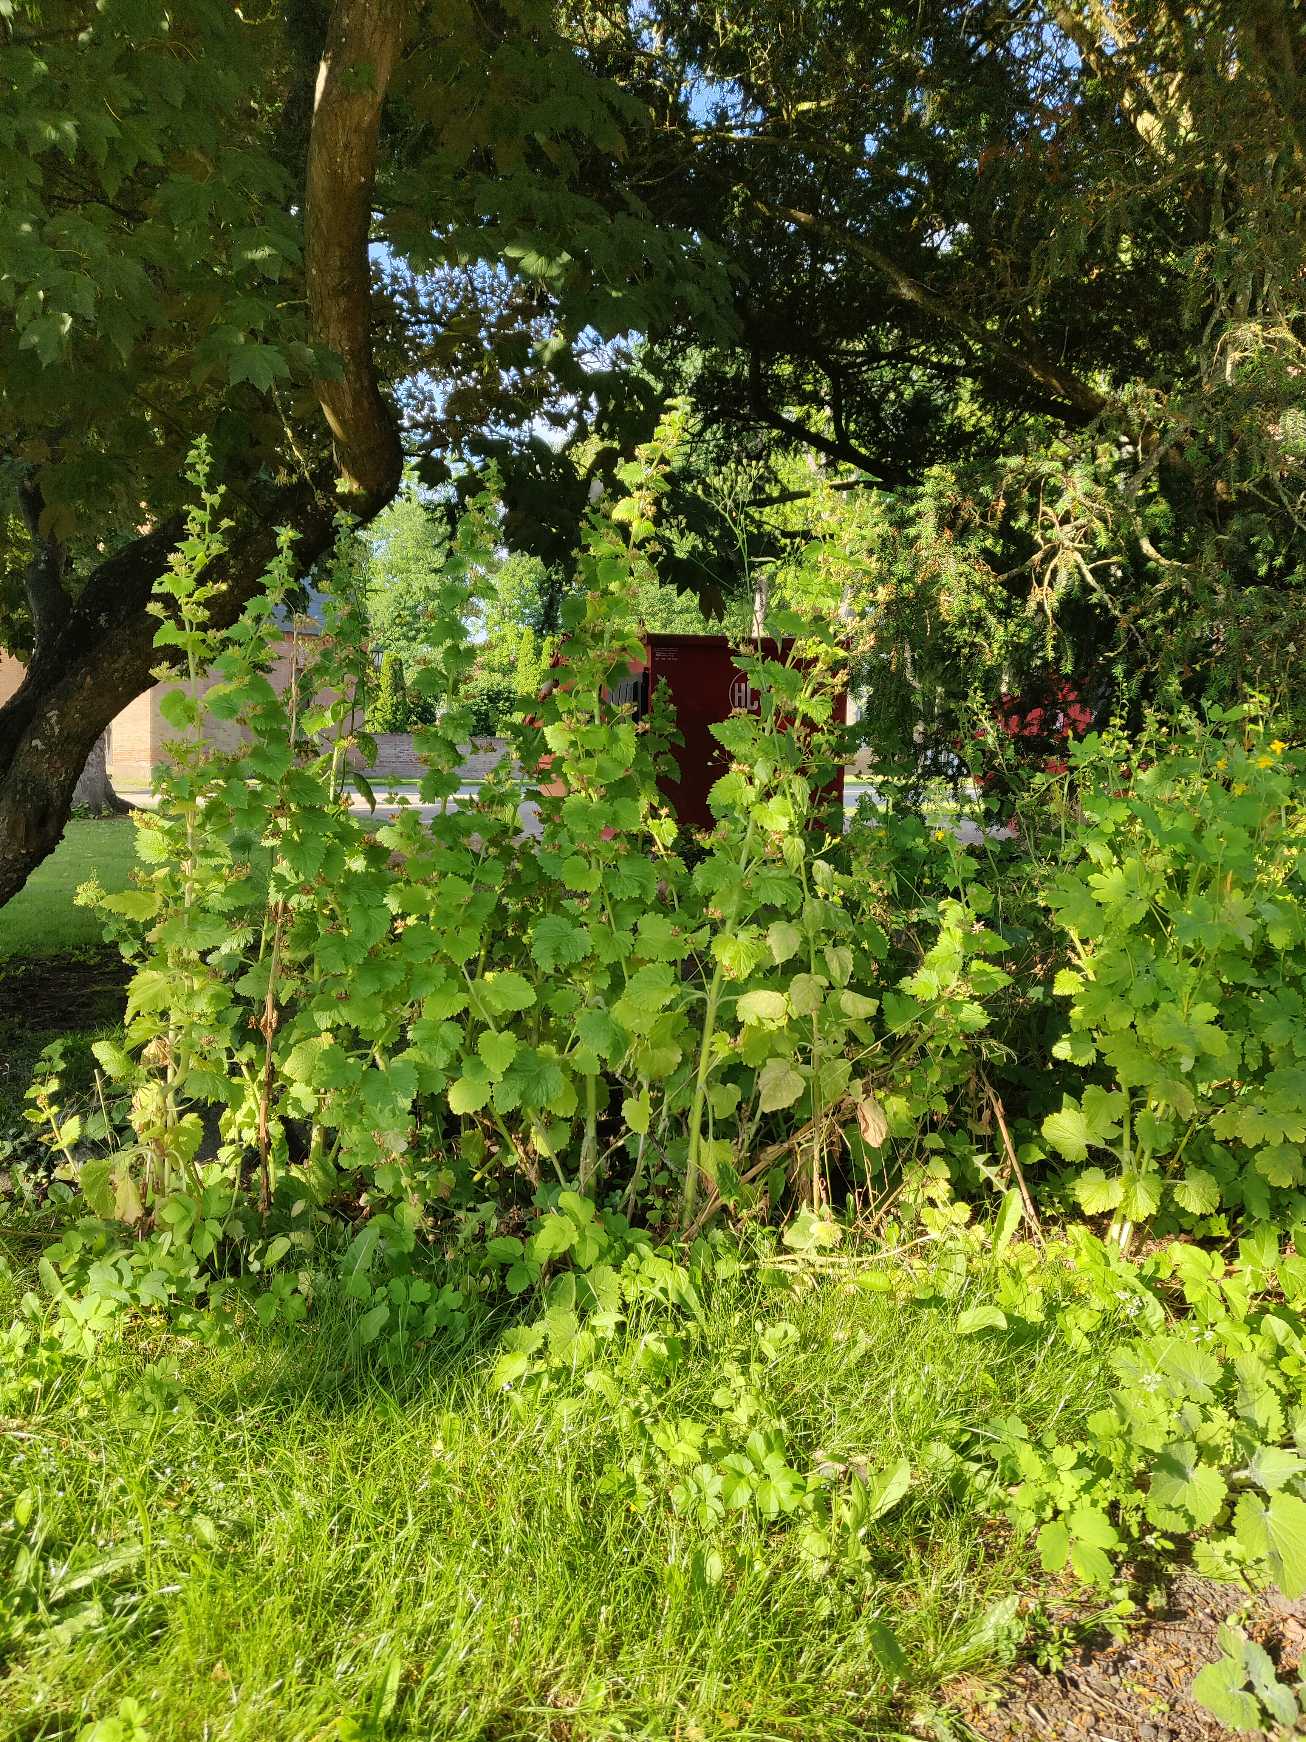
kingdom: Plantae
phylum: Tracheophyta
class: Magnoliopsida
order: Lamiales
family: Scrophulariaceae
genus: Scrophularia
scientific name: Scrophularia vernalis
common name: Vår-brunrod
